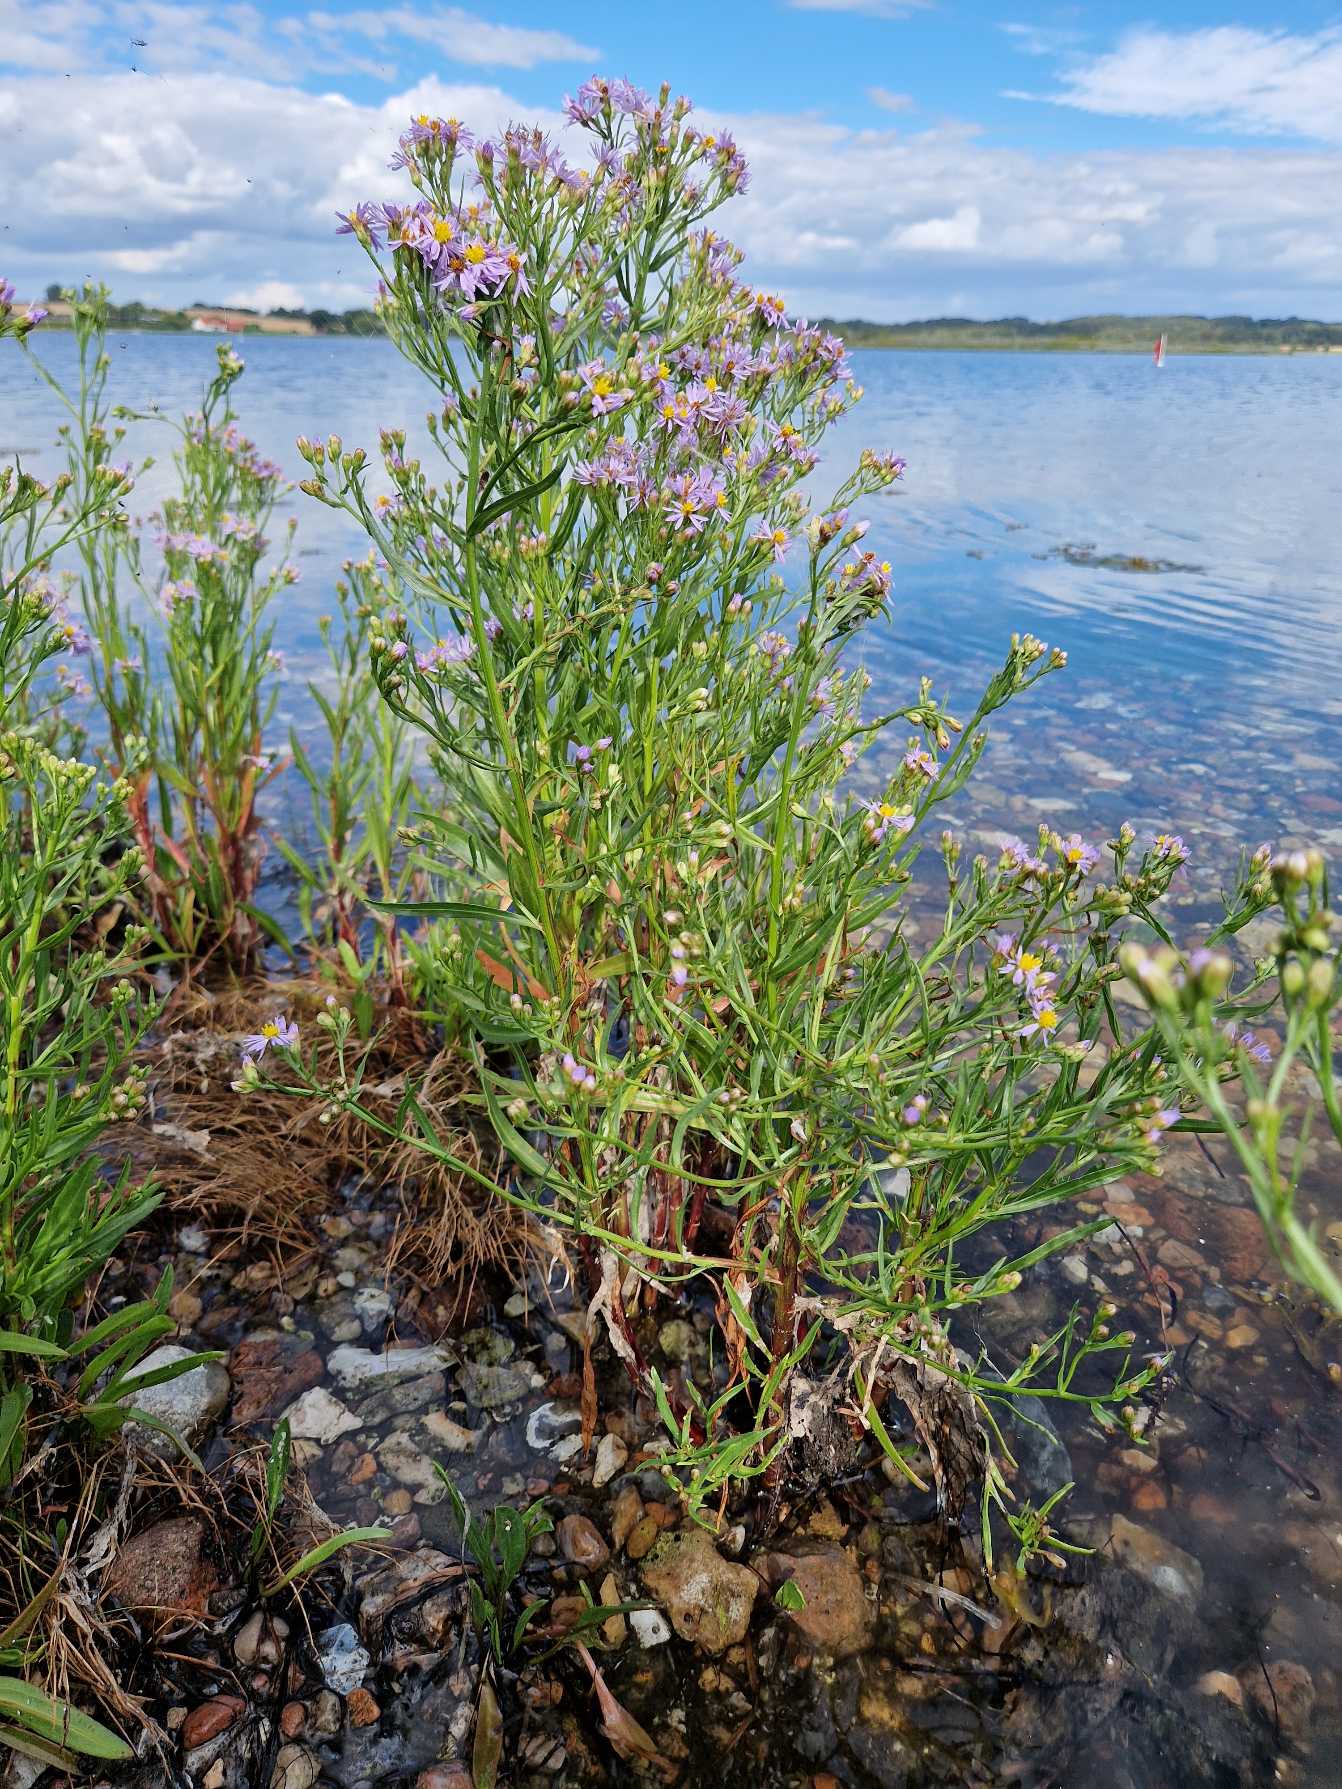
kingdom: Plantae
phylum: Tracheophyta
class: Magnoliopsida
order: Asterales
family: Asteraceae
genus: Tripolium
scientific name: Tripolium pannonicum
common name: Strandasters
